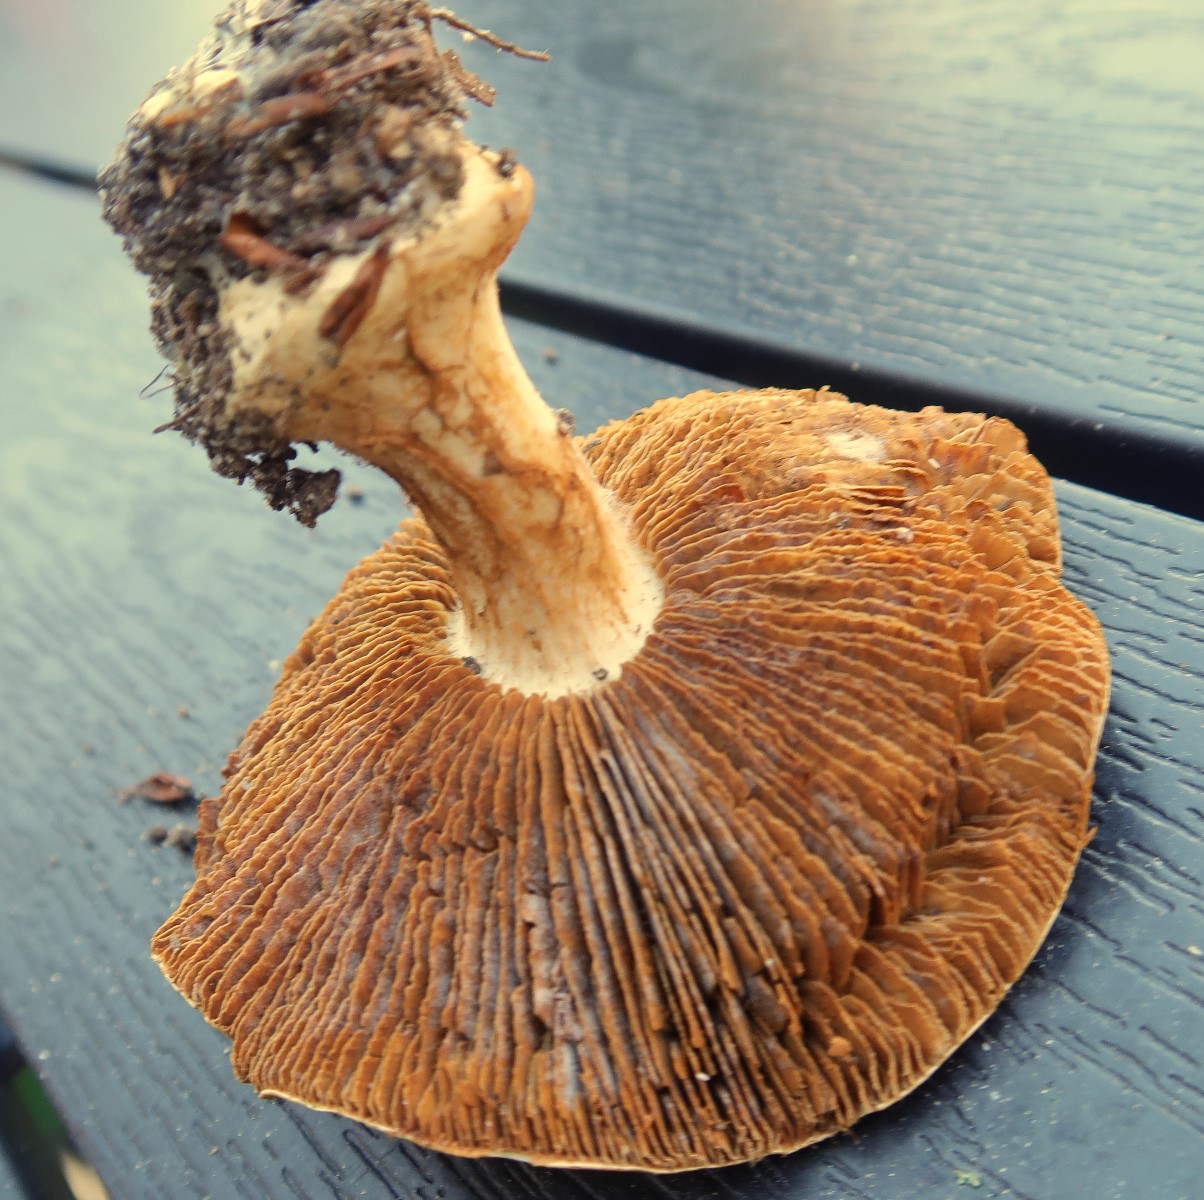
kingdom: Fungi
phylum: Basidiomycota
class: Agaricomycetes
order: Agaricales
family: Cortinariaceae
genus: Cortinarius
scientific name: Cortinarius caerulescens
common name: blåkødet slørhat
